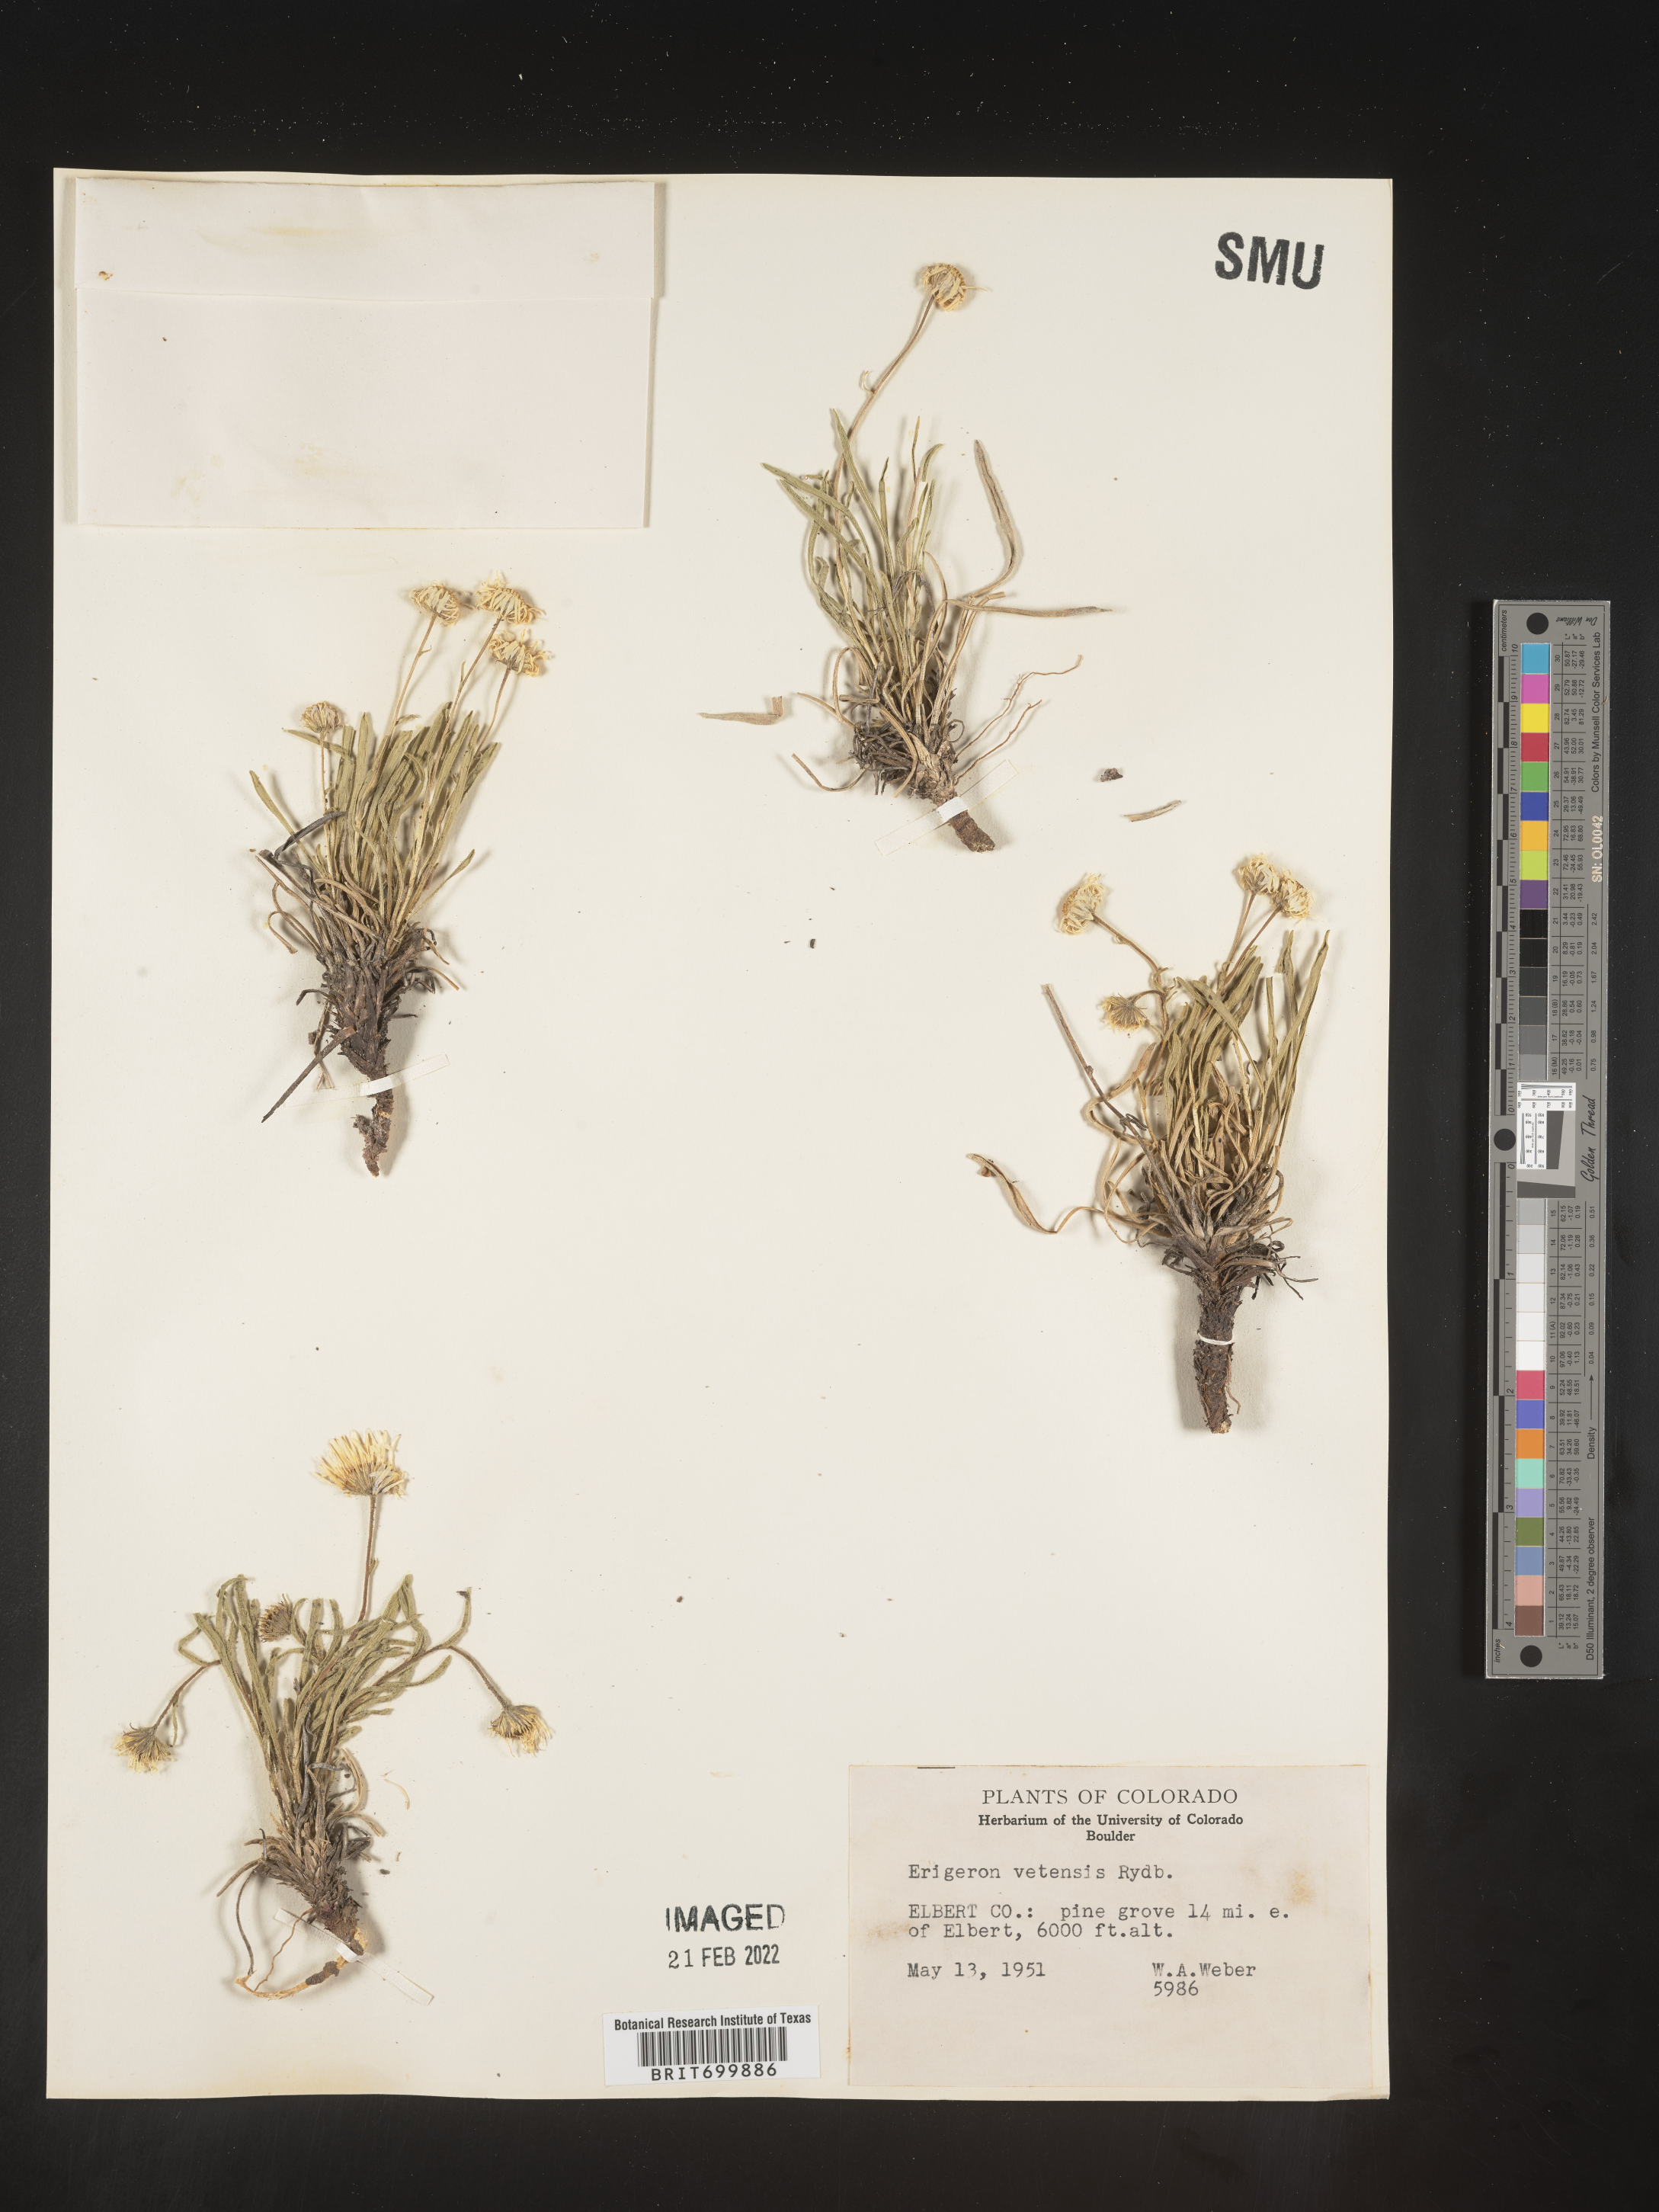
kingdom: Plantae
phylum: Tracheophyta
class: Magnoliopsida
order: Asterales
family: Asteraceae
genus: Erigeron
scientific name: Erigeron vetensis
